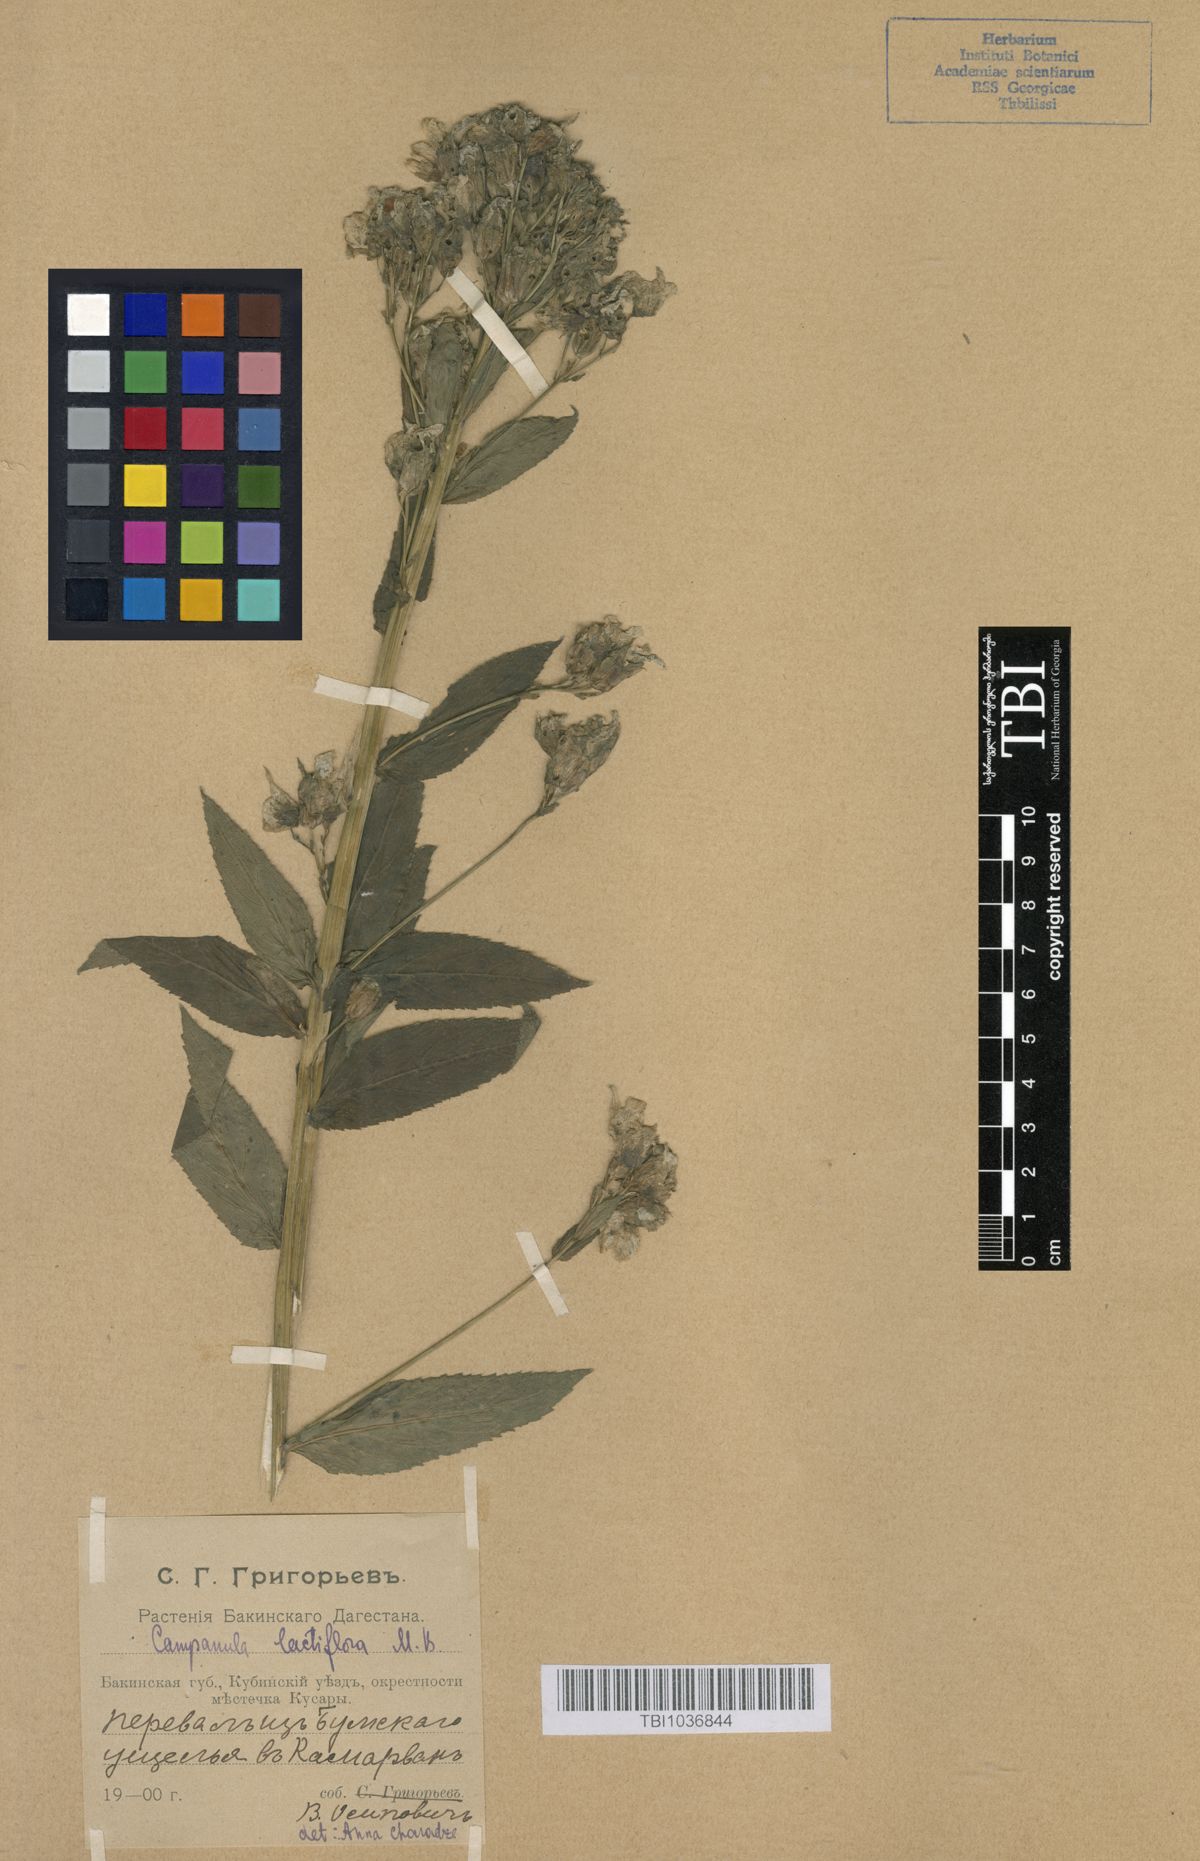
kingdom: Plantae
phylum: Tracheophyta
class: Magnoliopsida
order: Asterales
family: Campanulaceae
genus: Campanula
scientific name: Campanula lactiflora
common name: Milky bellflower
